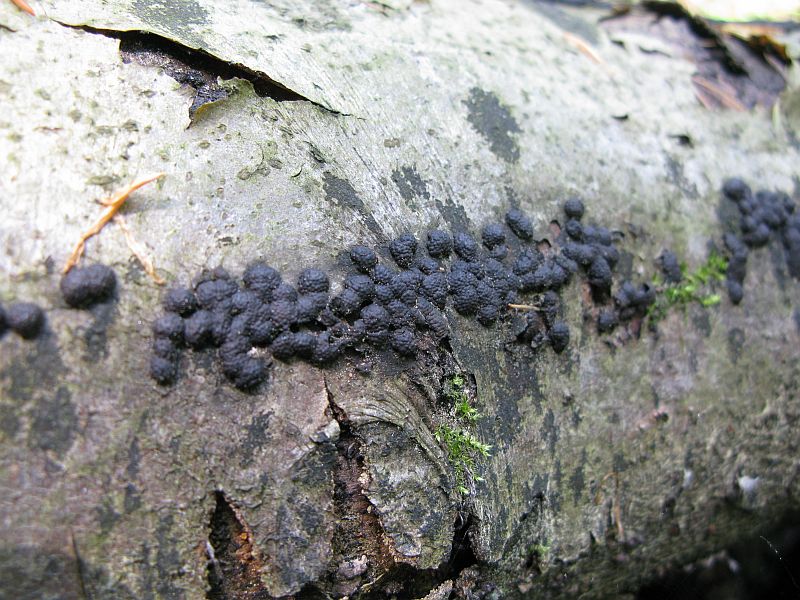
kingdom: Fungi
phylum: Ascomycota
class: Sordariomycetes
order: Xylariales
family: Hypoxylaceae
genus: Jackrogersella
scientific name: Jackrogersella cohaerens
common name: sammenflydende kulbær
